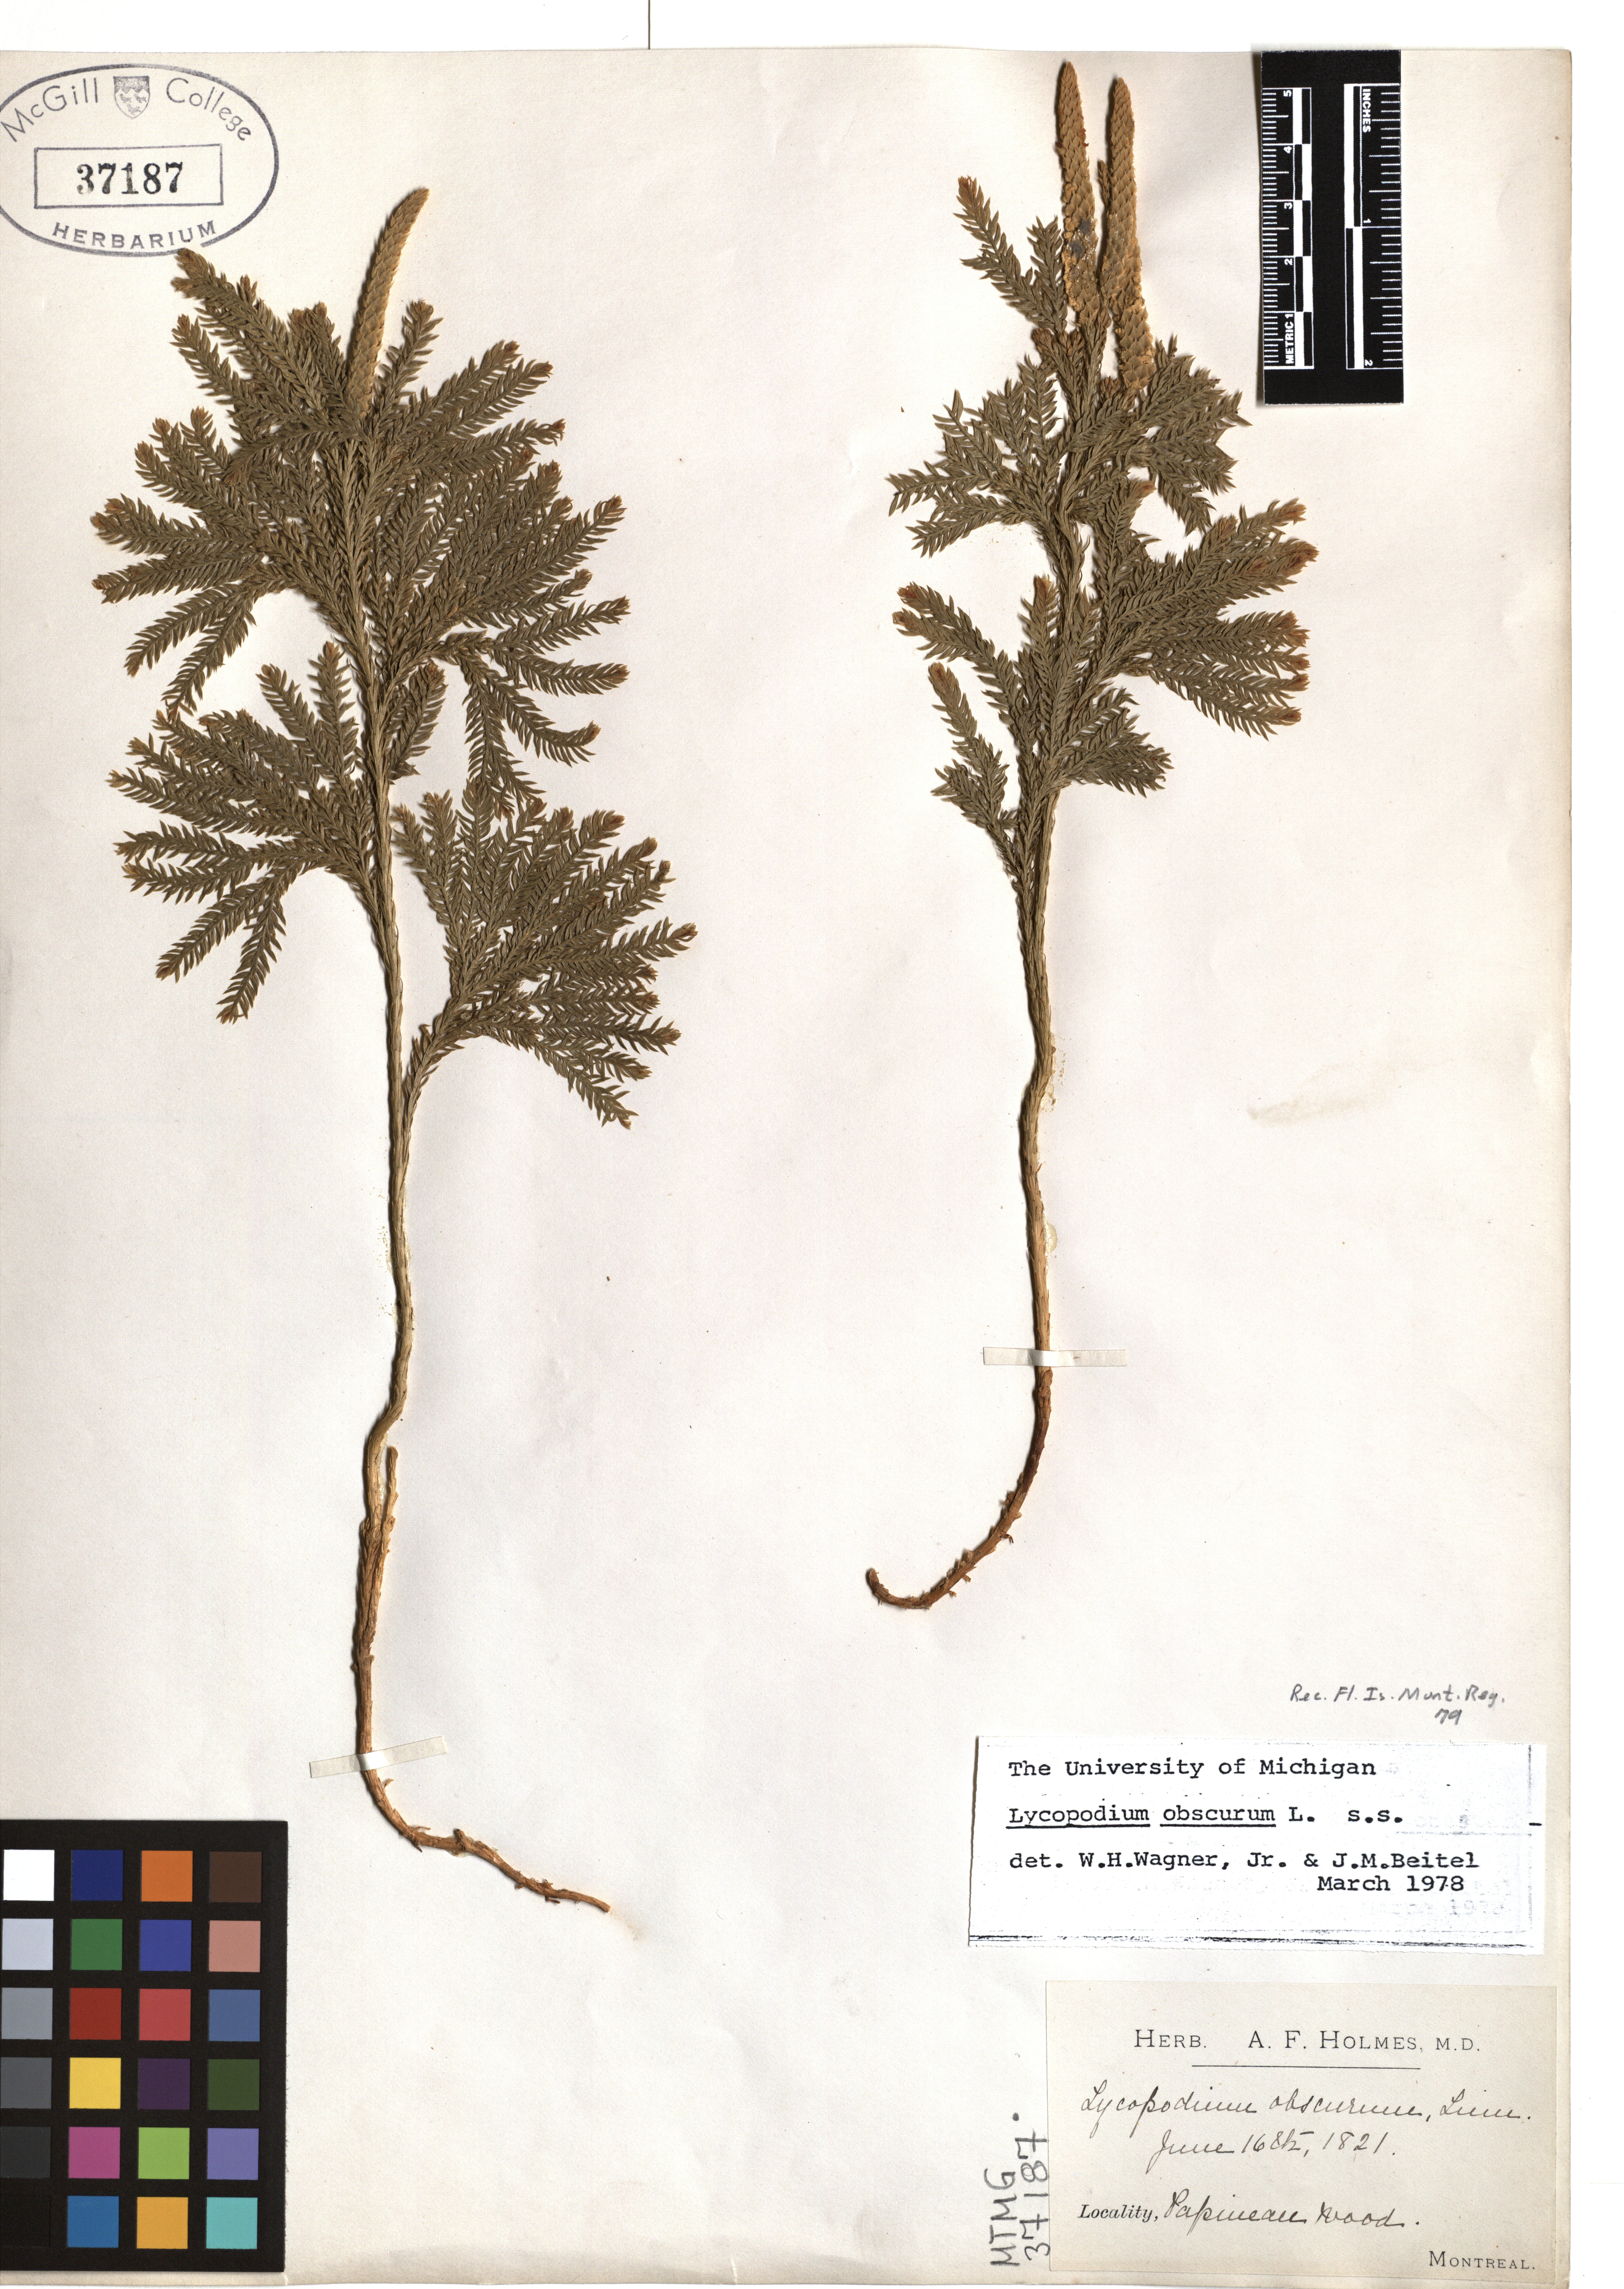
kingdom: Plantae
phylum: Tracheophyta
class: Lycopodiopsida
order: Lycopodiales
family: Lycopodiaceae
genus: Dendrolycopodium
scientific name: Dendrolycopodium obscurum
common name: Common ground-pine
